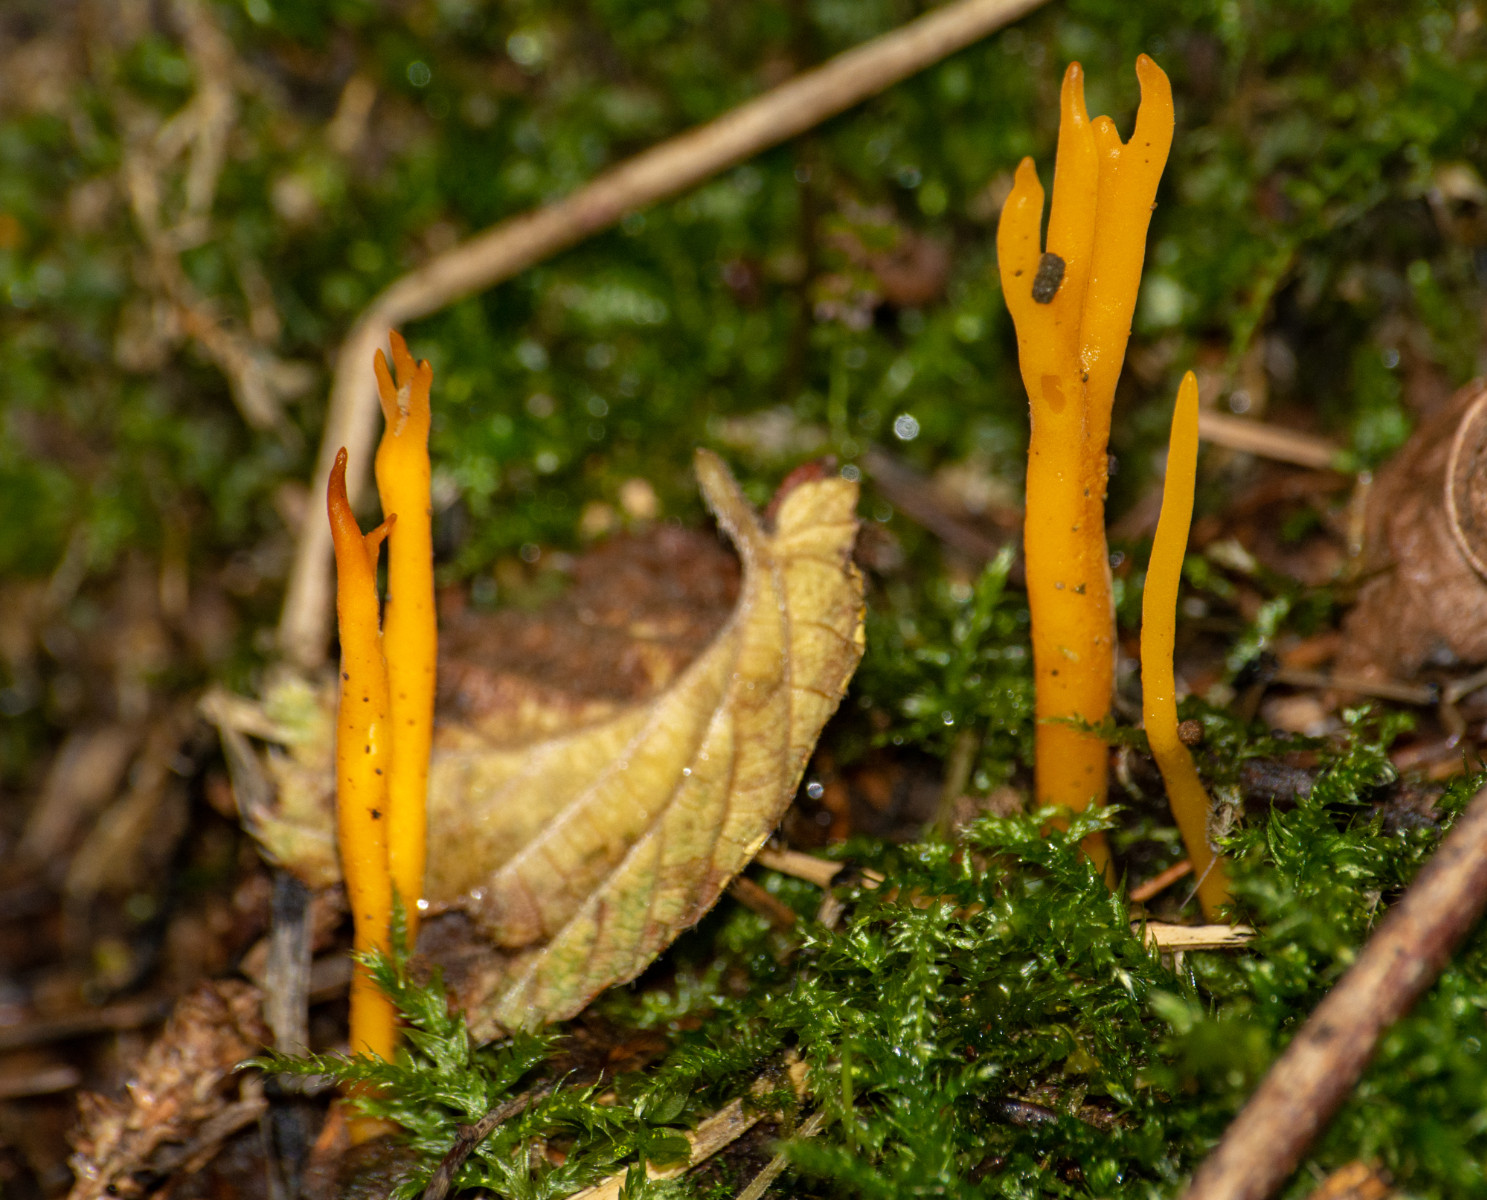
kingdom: Fungi
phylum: Basidiomycota
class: Dacrymycetes
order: Dacrymycetales
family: Dacrymycetaceae
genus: Calocera
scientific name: Calocera viscosa
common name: almindelig guldgaffel
